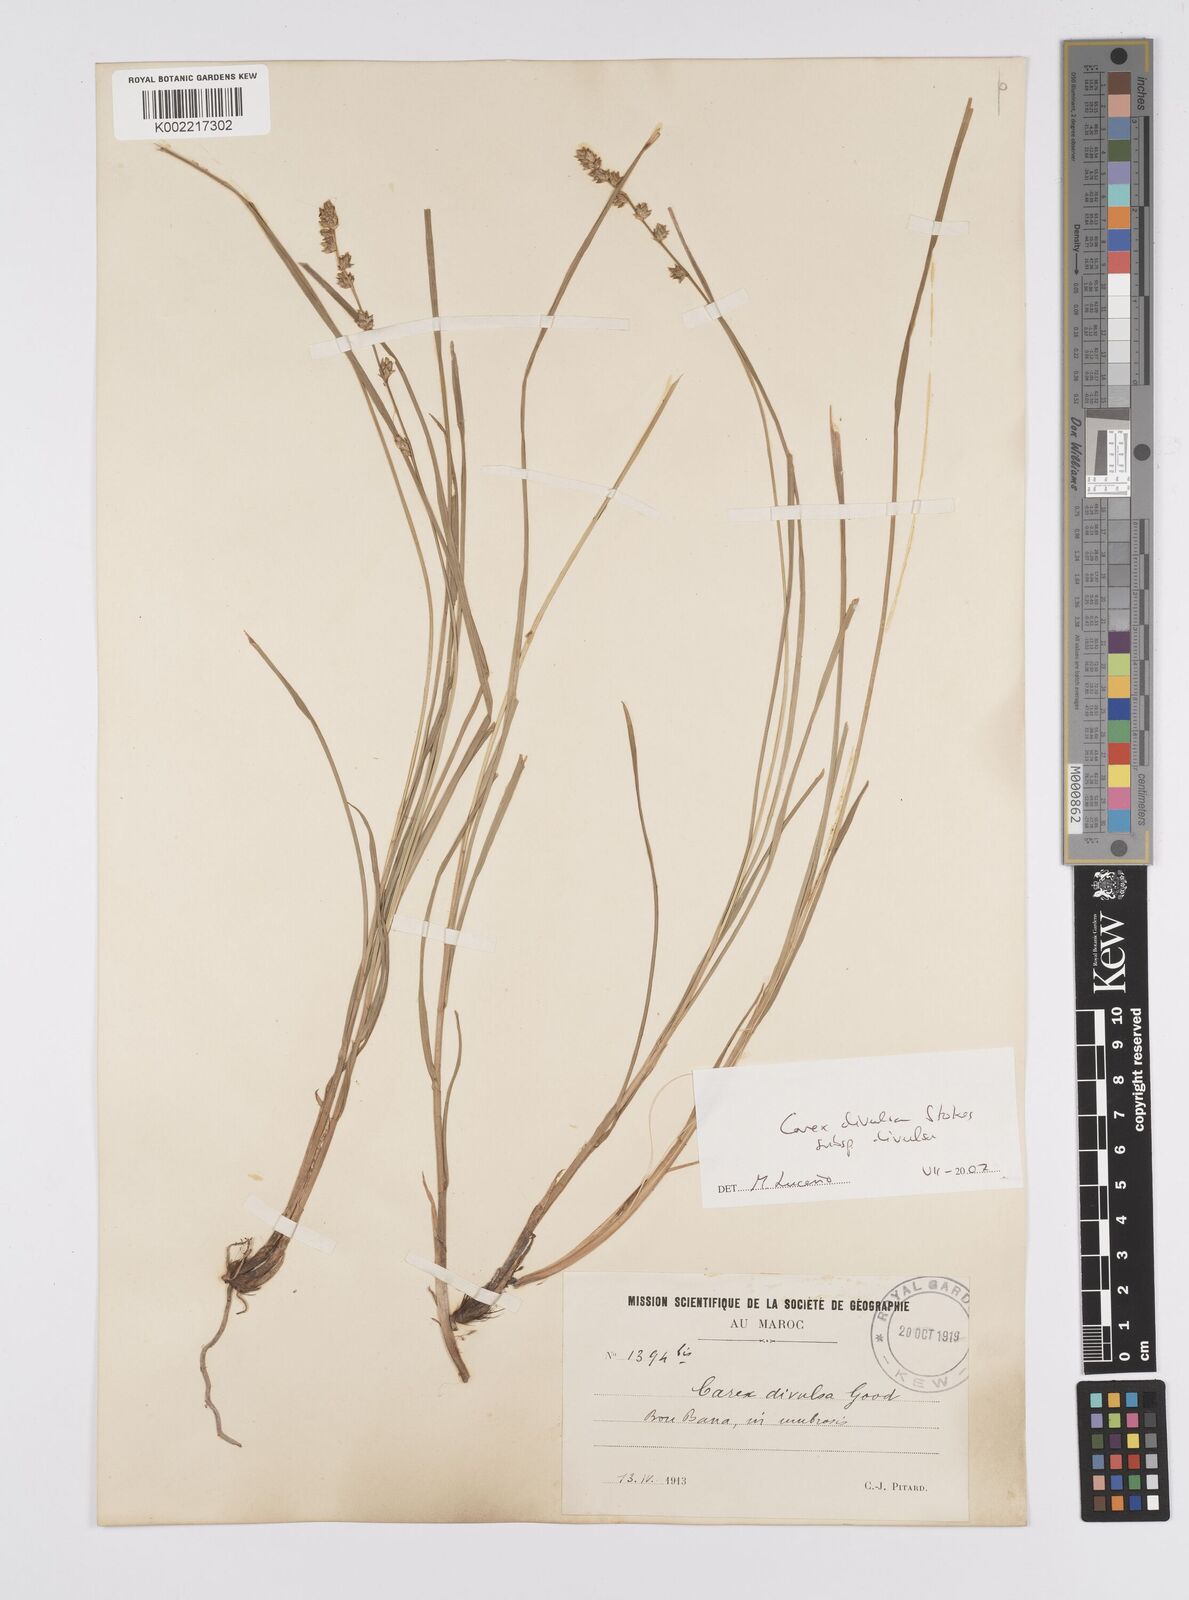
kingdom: Plantae
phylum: Tracheophyta
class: Liliopsida
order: Poales
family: Cyperaceae
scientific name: Cyperaceae
